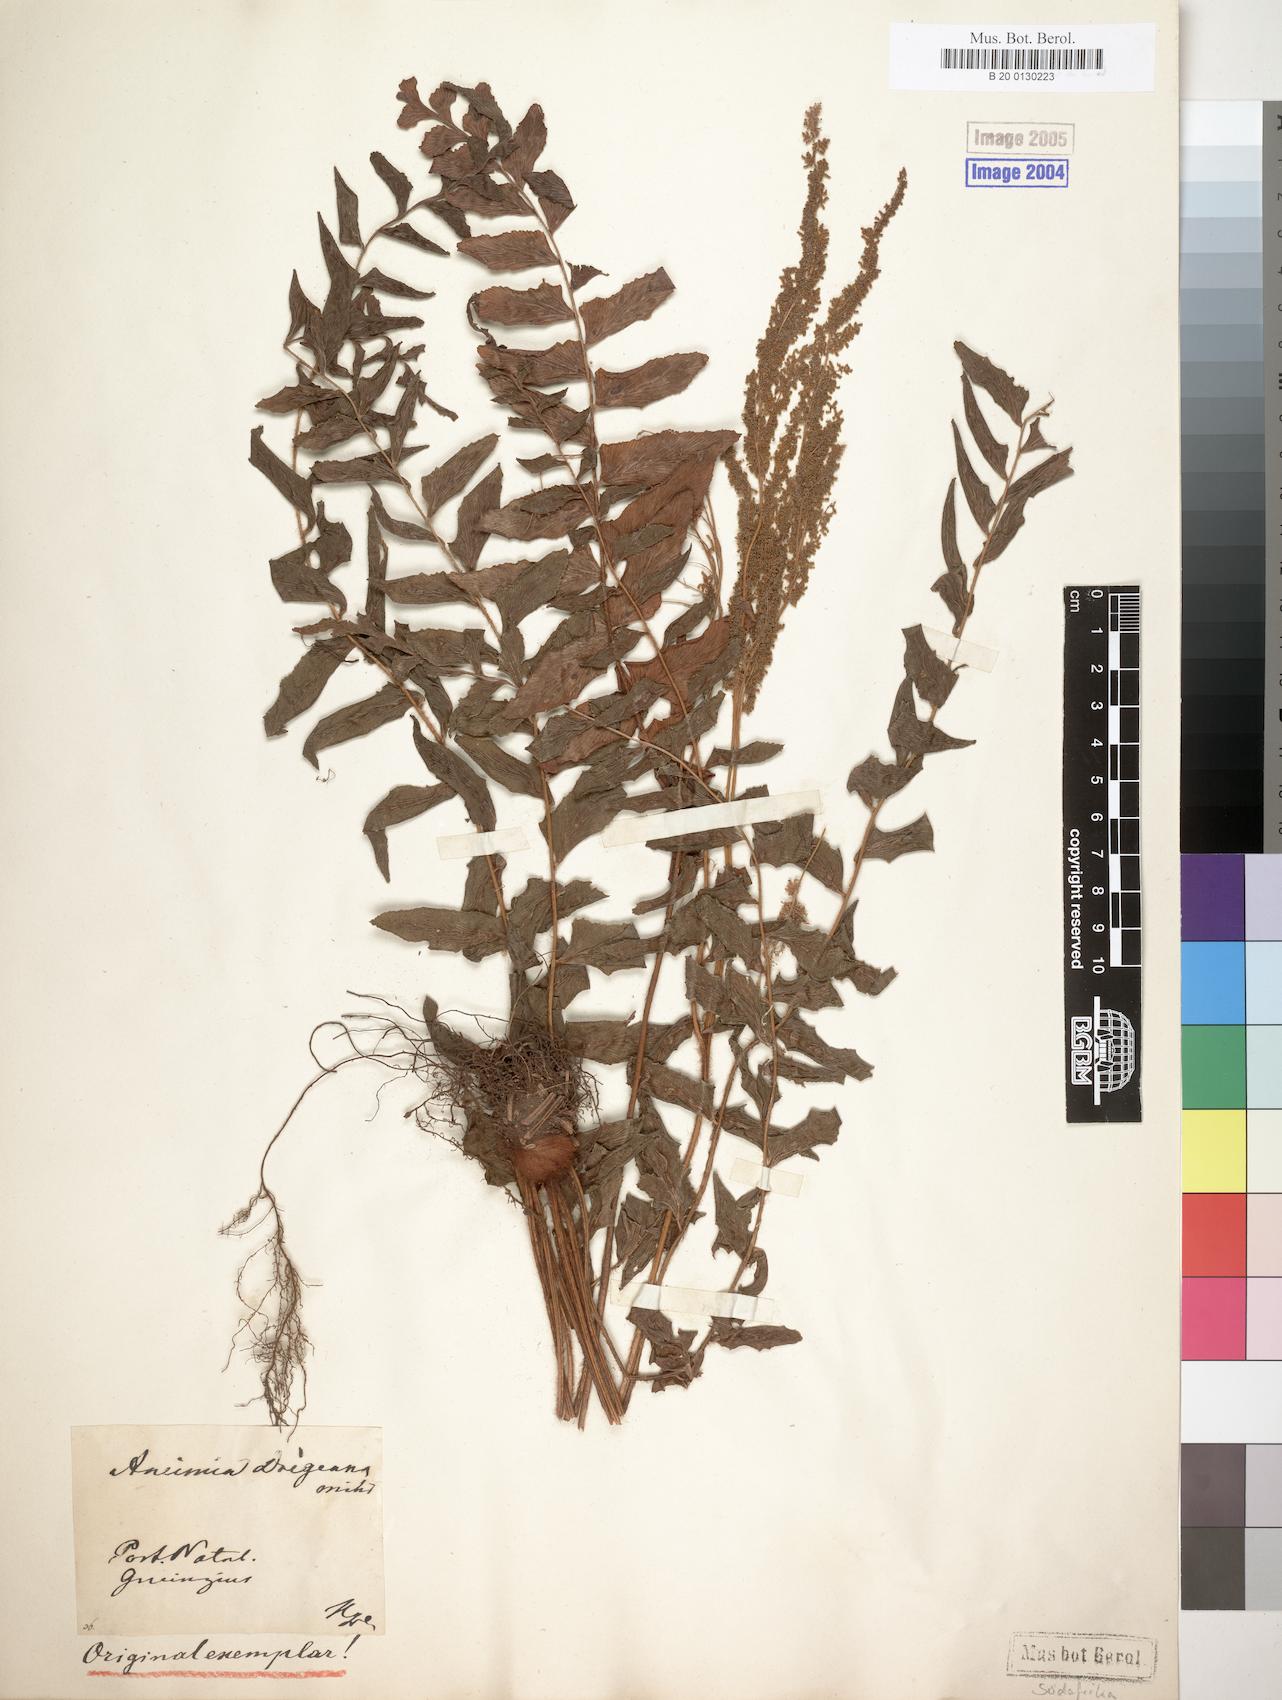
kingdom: Plantae
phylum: Tracheophyta
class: Polypodiopsida
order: Schizaeales
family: Anemiaceae
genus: Anemia
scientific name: Anemia dregeana
